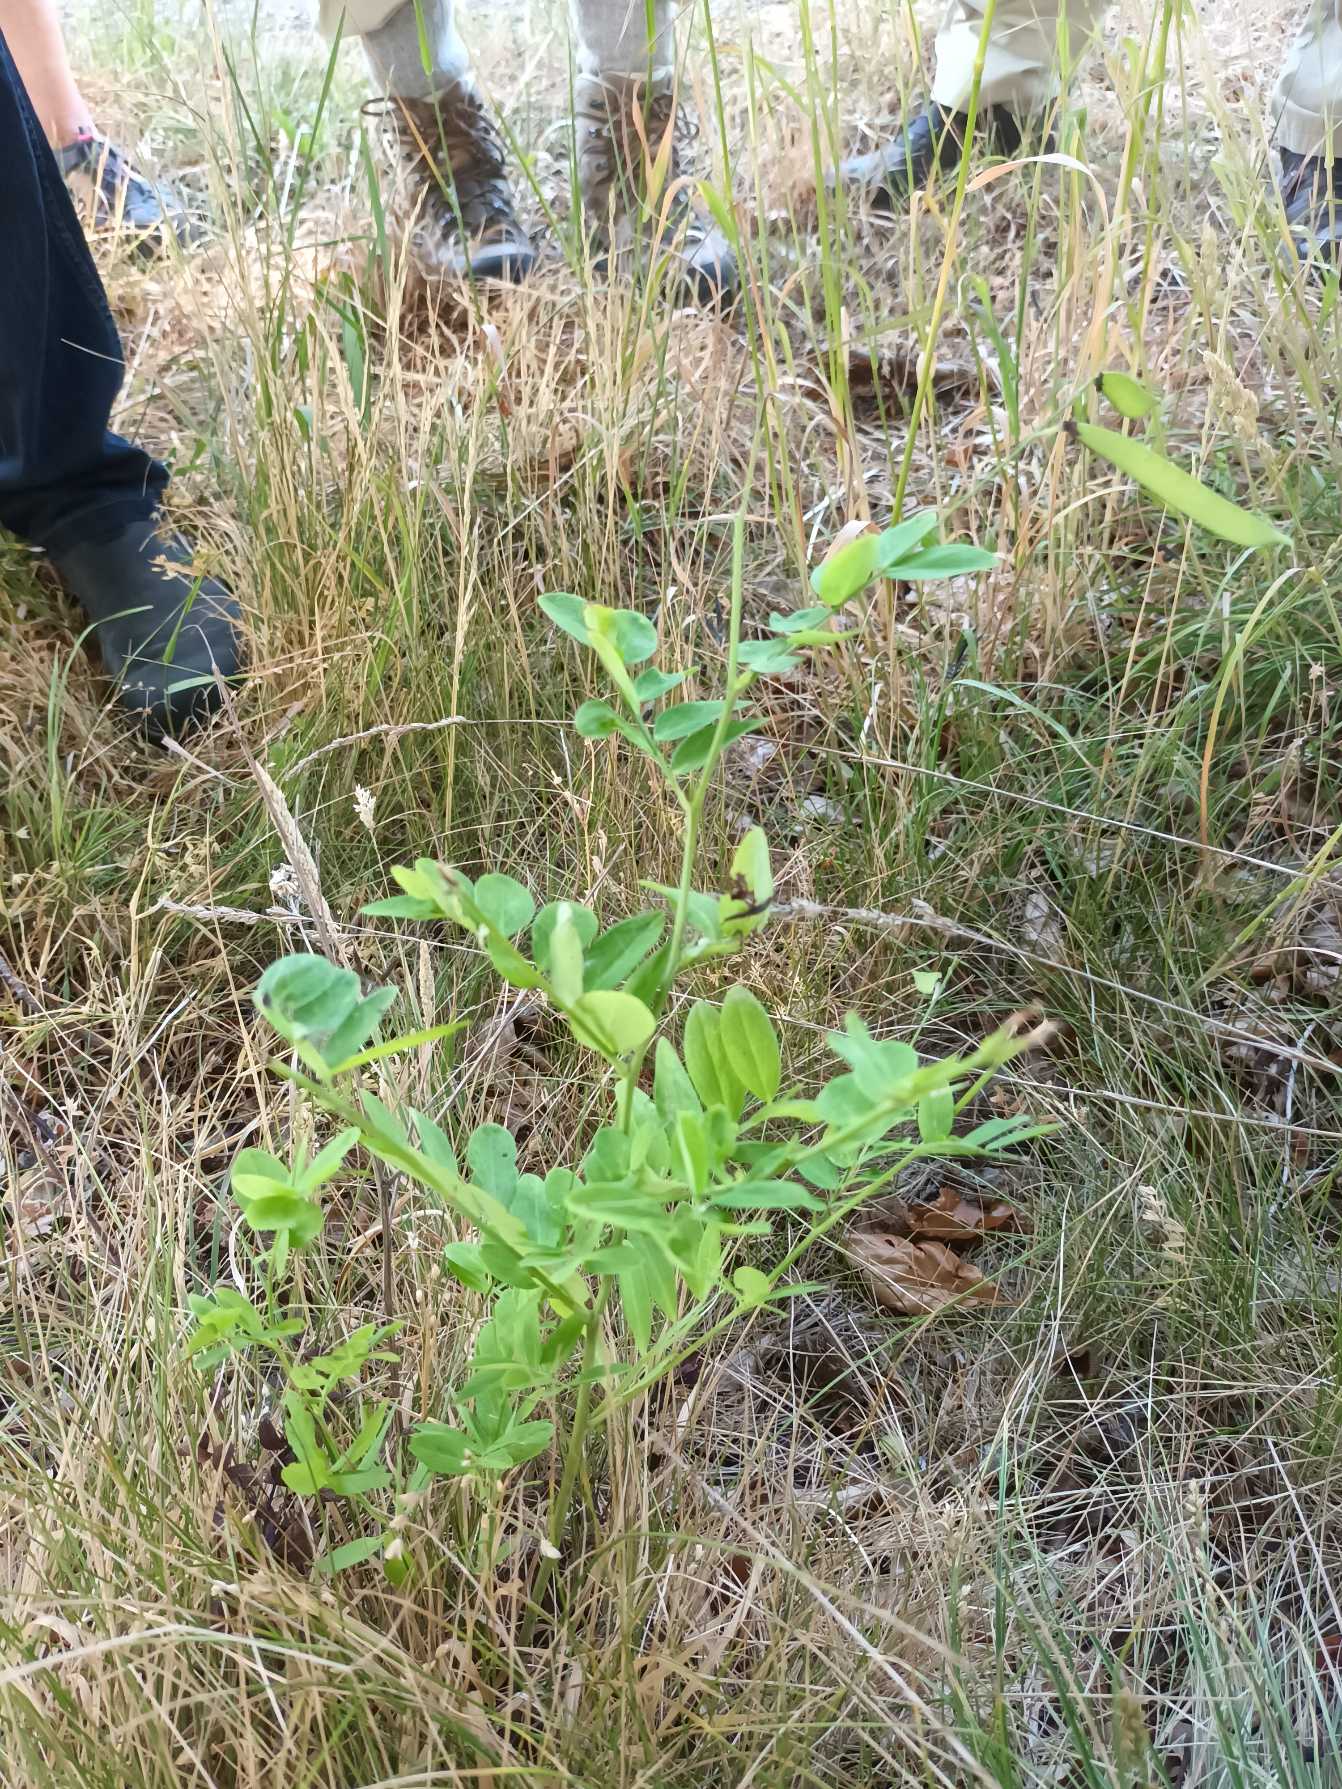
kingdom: Plantae
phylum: Tracheophyta
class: Magnoliopsida
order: Fabales
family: Fabaceae
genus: Lathyrus
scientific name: Lathyrus niger
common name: Sort fladbælg
